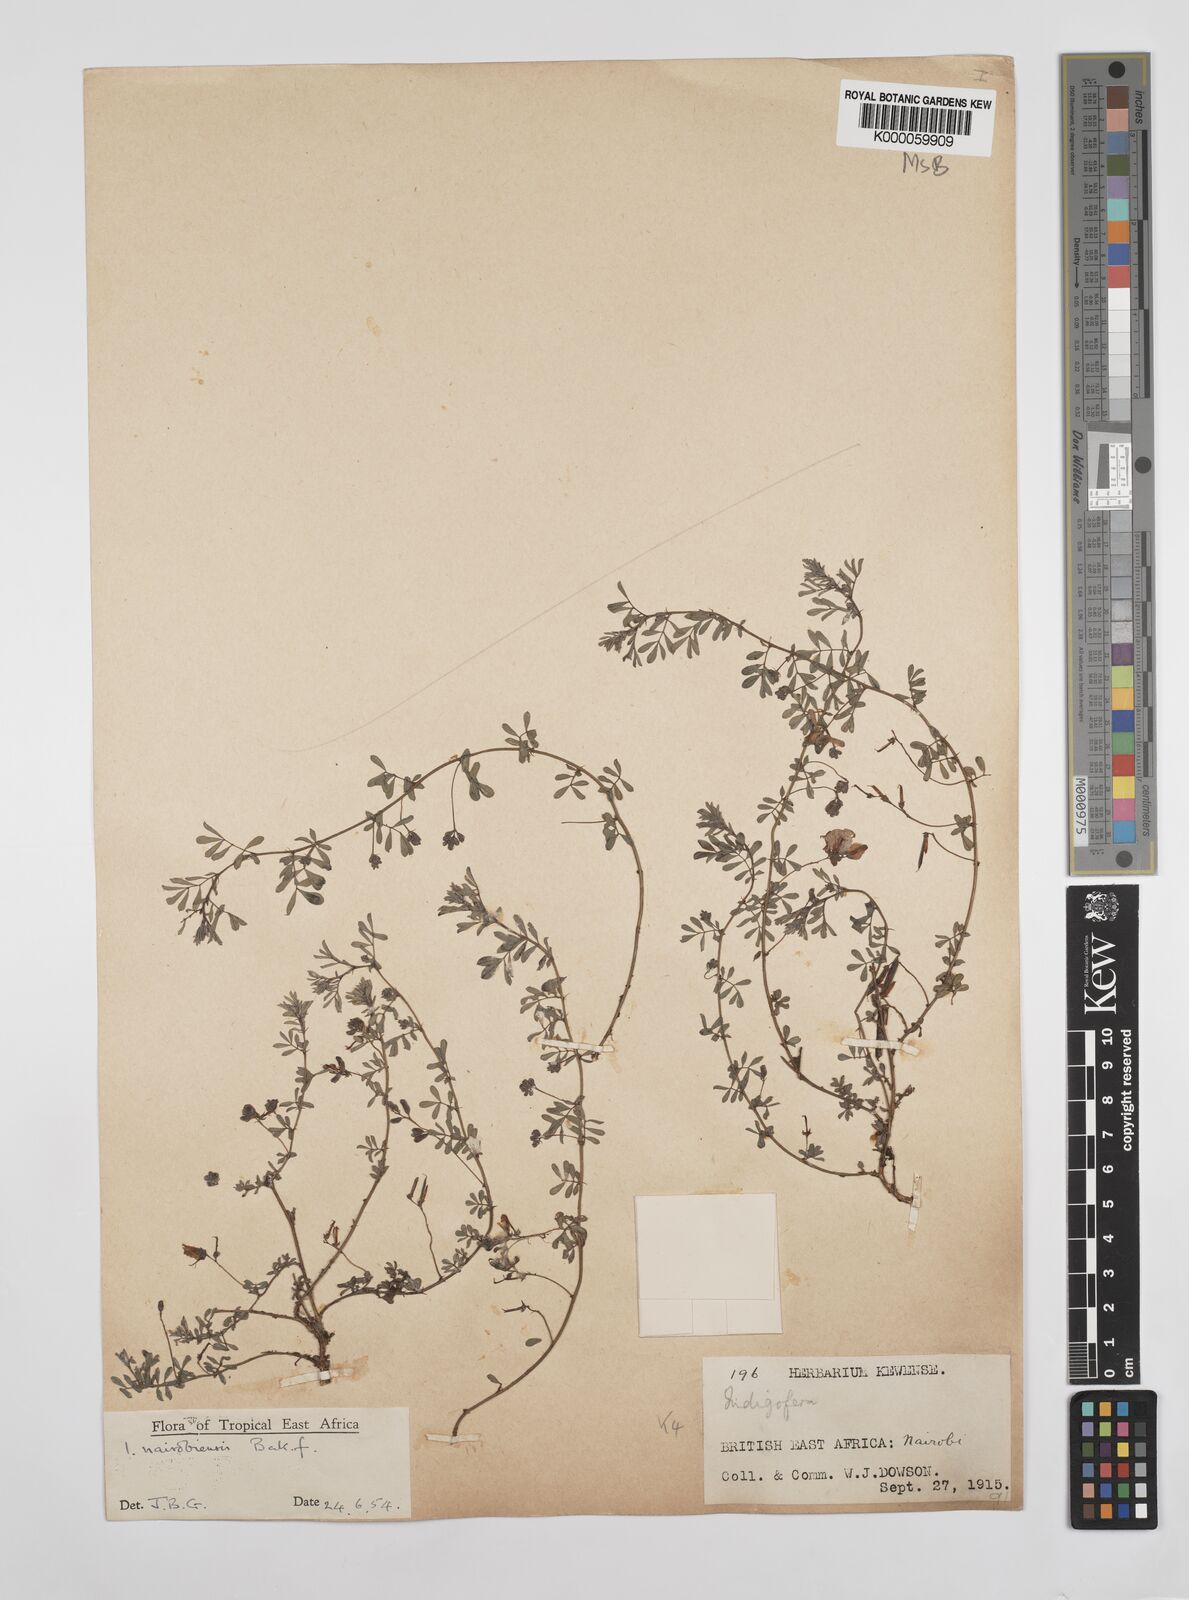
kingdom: Plantae
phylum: Tracheophyta
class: Magnoliopsida
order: Fabales
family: Fabaceae
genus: Indigofera
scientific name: Indigofera nairobiensis
